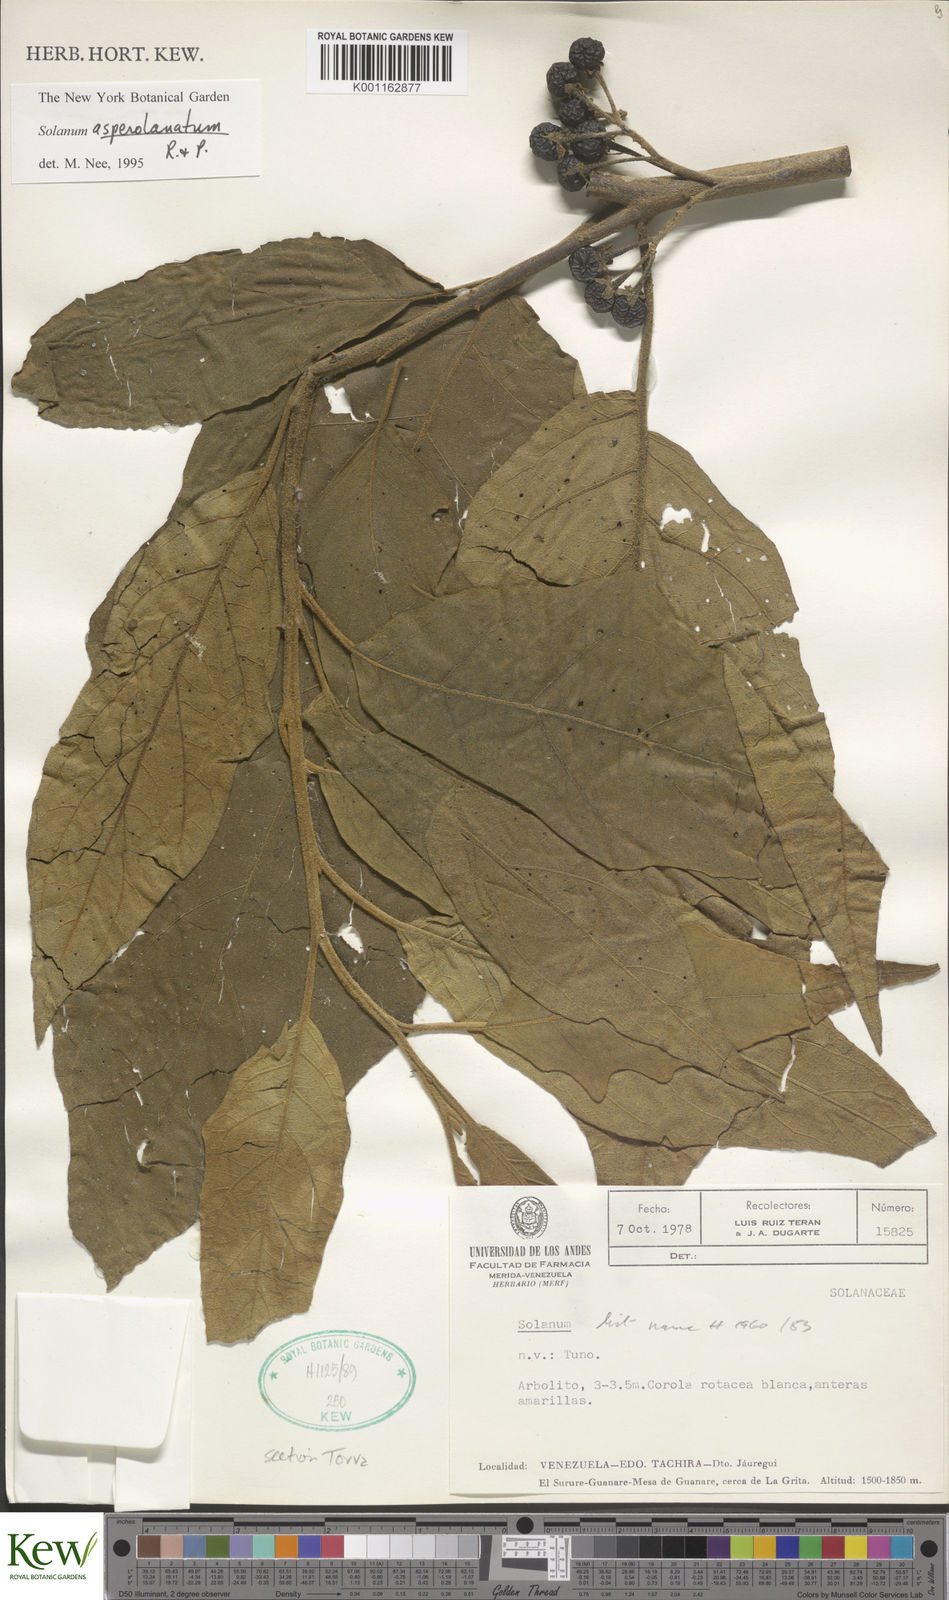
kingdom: Plantae
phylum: Tracheophyta
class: Magnoliopsida
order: Solanales
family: Solanaceae
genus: Solanum
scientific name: Solanum asperolanatum
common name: Devil's-fig
